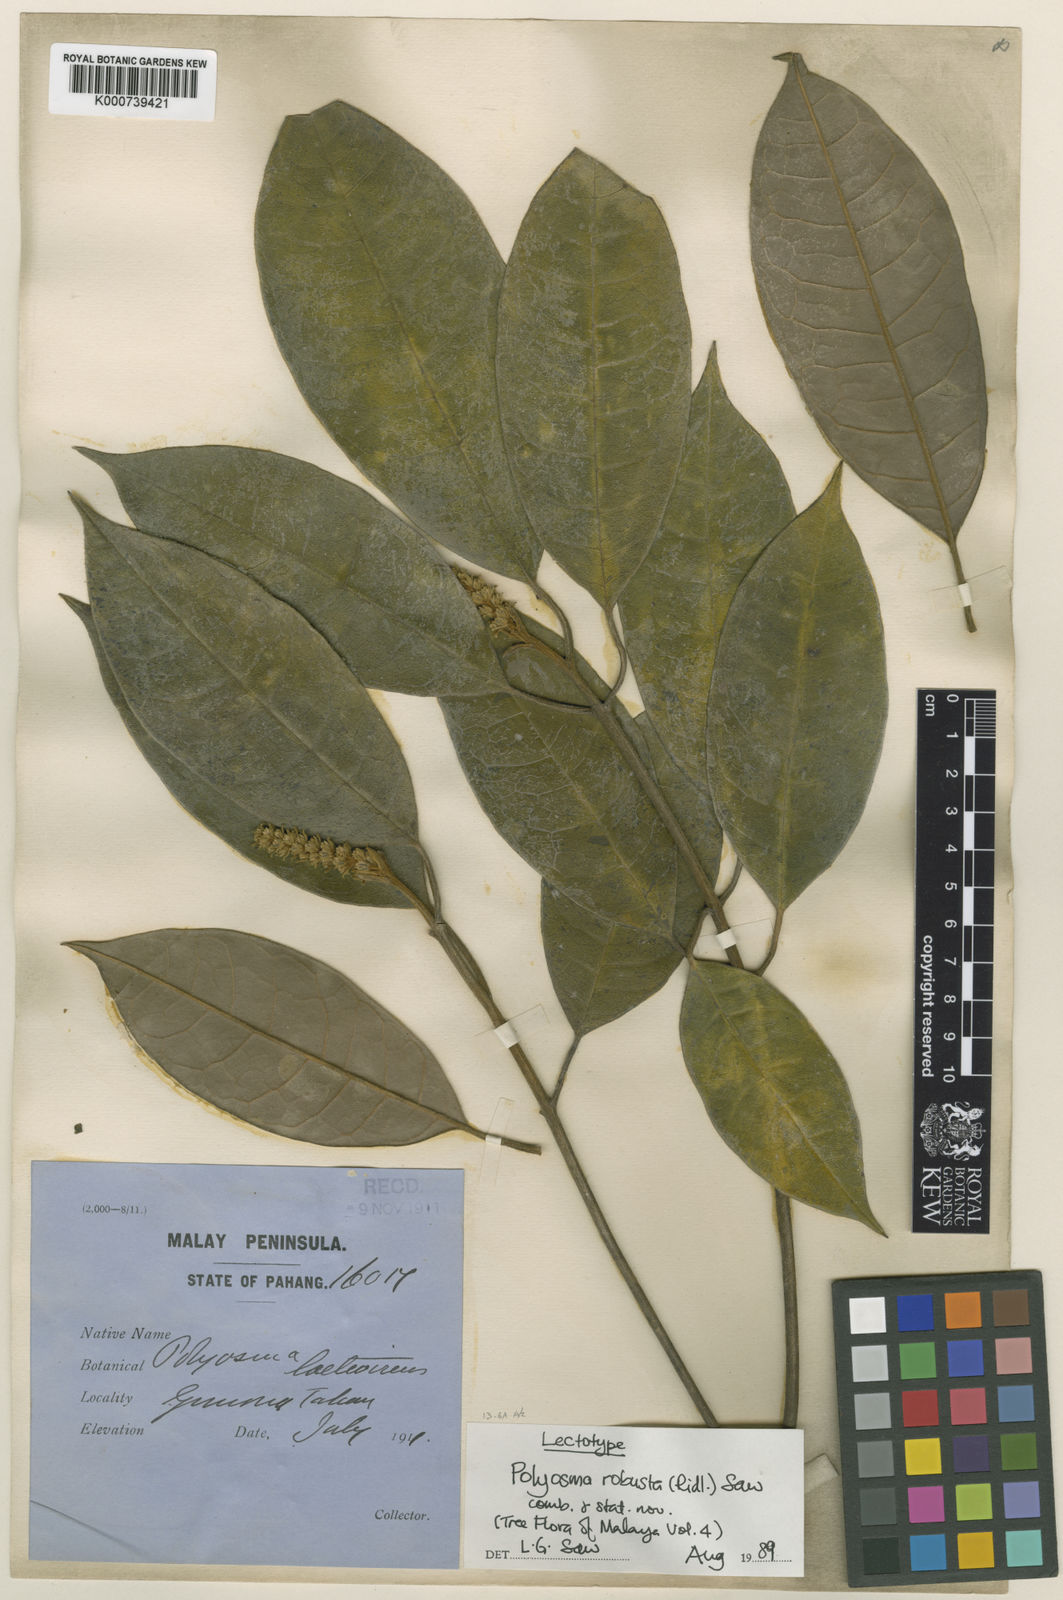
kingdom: Plantae
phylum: Tracheophyta
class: Magnoliopsida
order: Escalloniales
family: Escalloniaceae
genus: Polyosma
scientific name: Polyosma ridleyi
